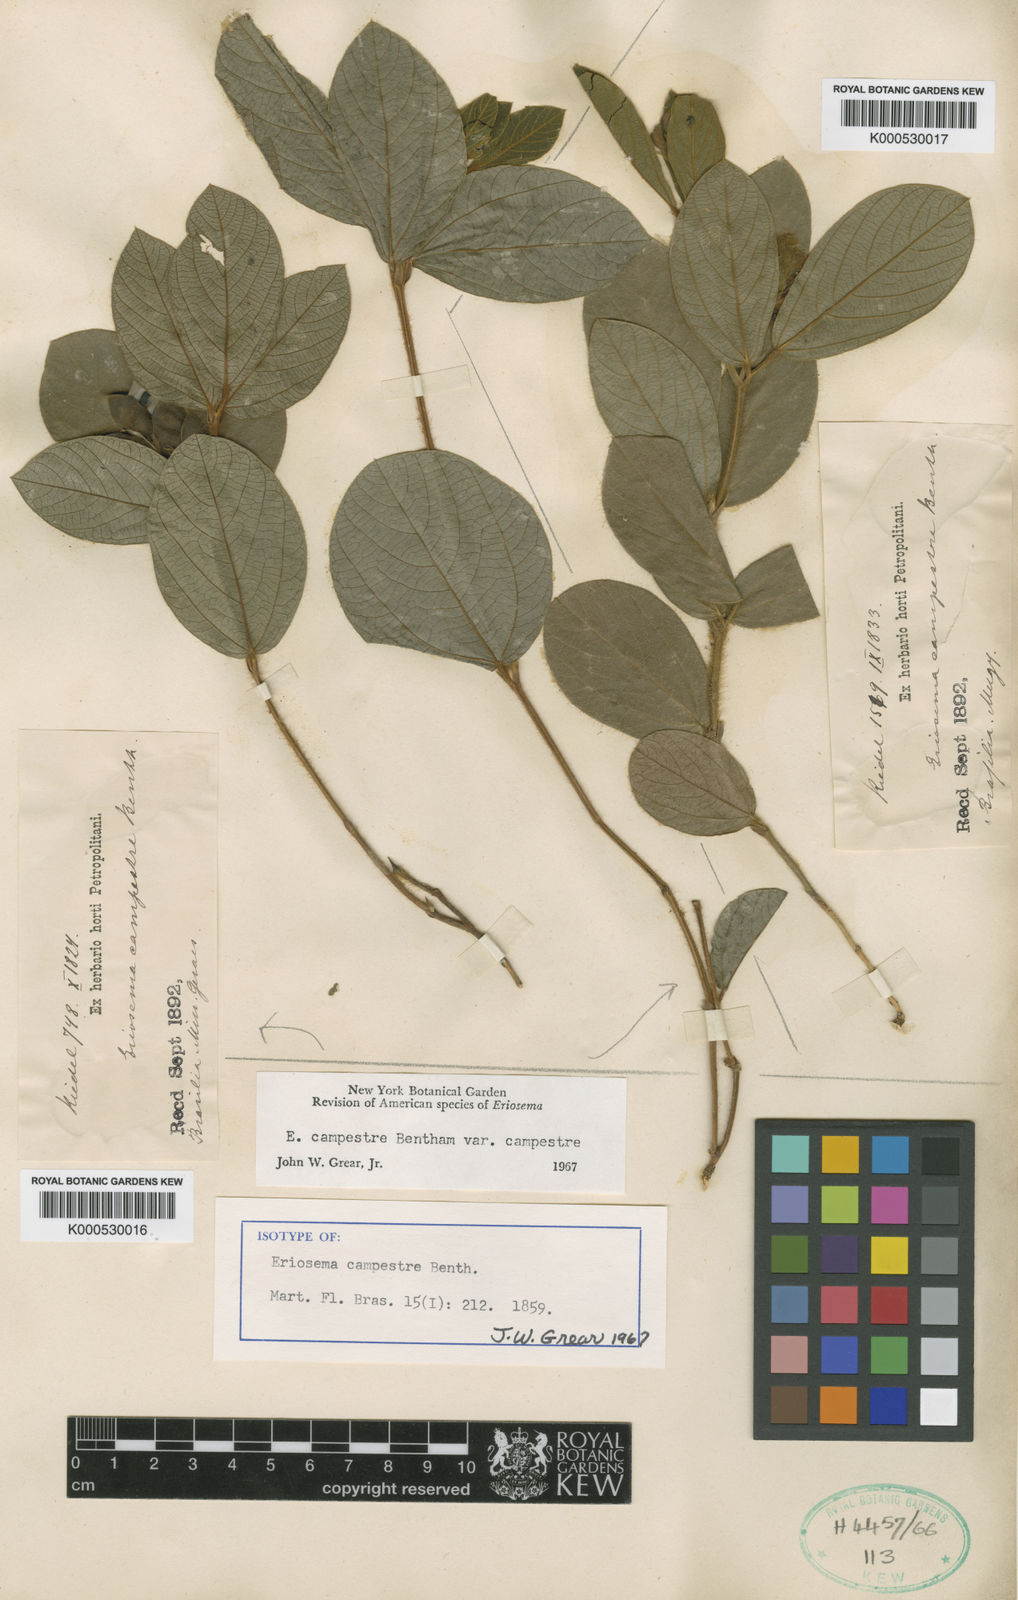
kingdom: Plantae
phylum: Tracheophyta
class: Magnoliopsida
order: Fabales
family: Fabaceae
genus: Eriosema
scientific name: Eriosema campestre
